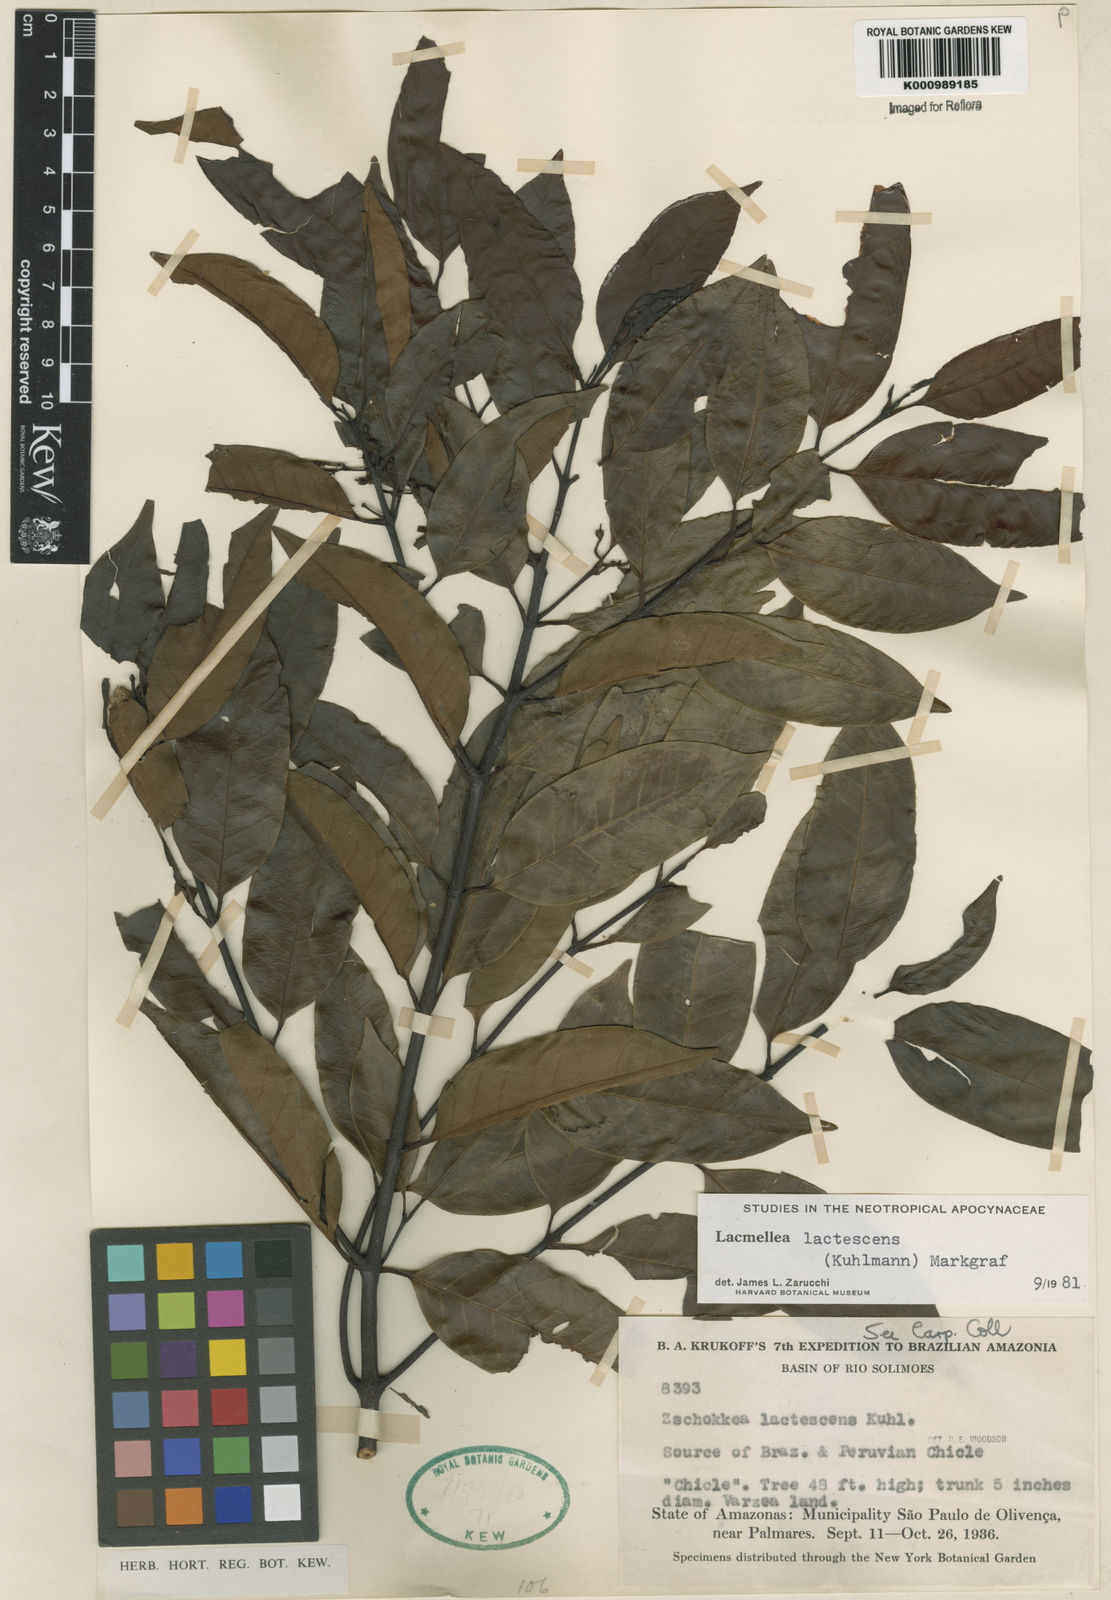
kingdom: Plantae
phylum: Tracheophyta
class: Magnoliopsida
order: Gentianales
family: Apocynaceae
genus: Lacmellea
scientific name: Lacmellea
